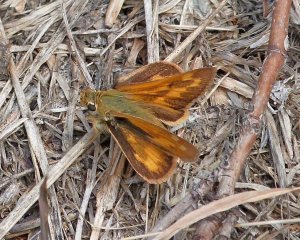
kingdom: Animalia
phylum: Arthropoda
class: Insecta
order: Lepidoptera
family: Hesperiidae
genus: Ochlodes
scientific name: Ochlodes sylvanoides
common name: Woodland Skipper
